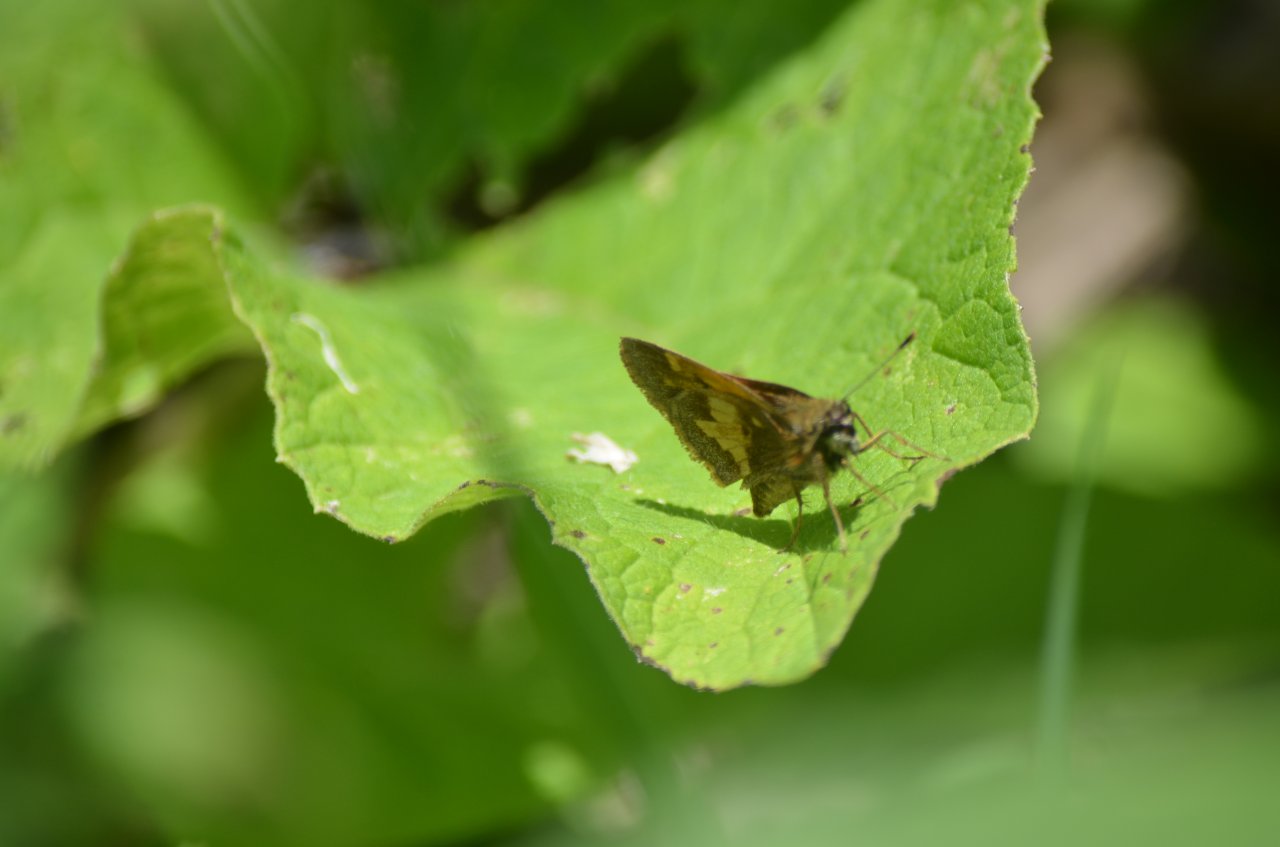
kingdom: Animalia
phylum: Arthropoda
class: Insecta
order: Lepidoptera
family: Hesperiidae
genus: Lon
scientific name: Lon hobomok
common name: Hobomok Skipper
